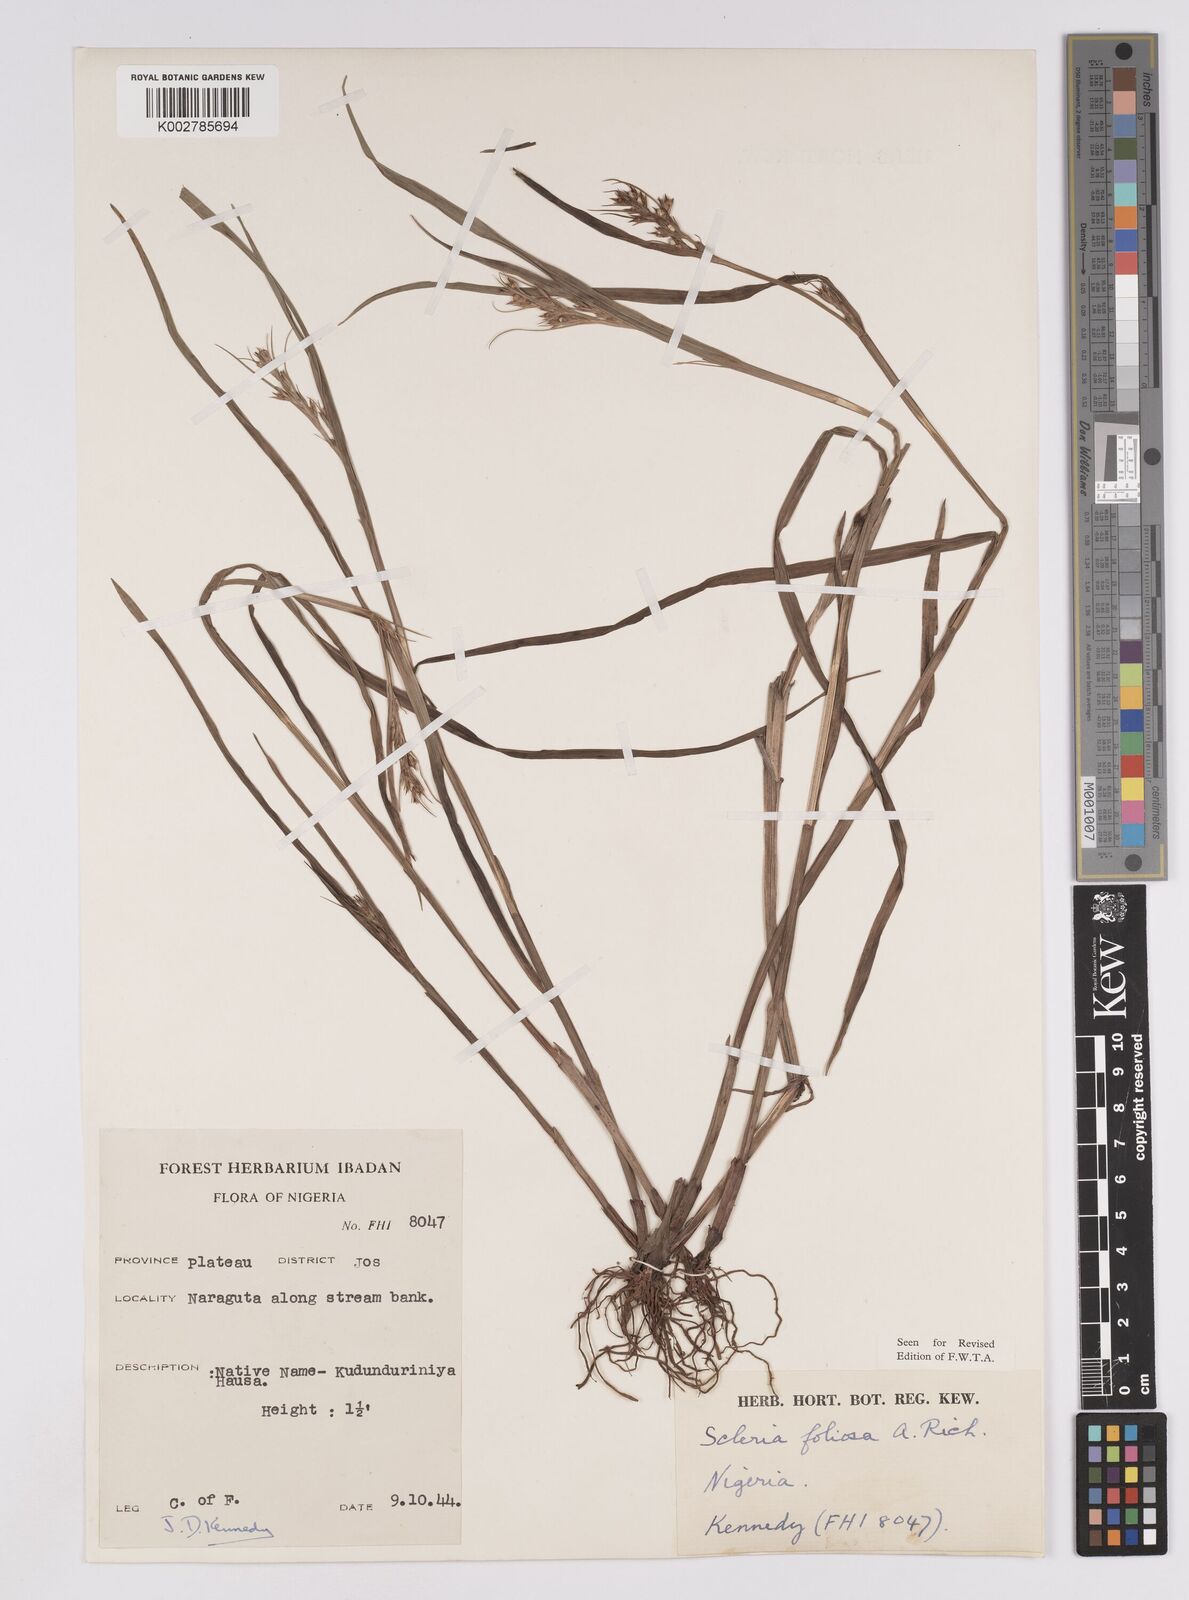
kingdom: Plantae
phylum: Tracheophyta
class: Liliopsida
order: Poales
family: Cyperaceae
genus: Scleria
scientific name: Scleria foliosa
